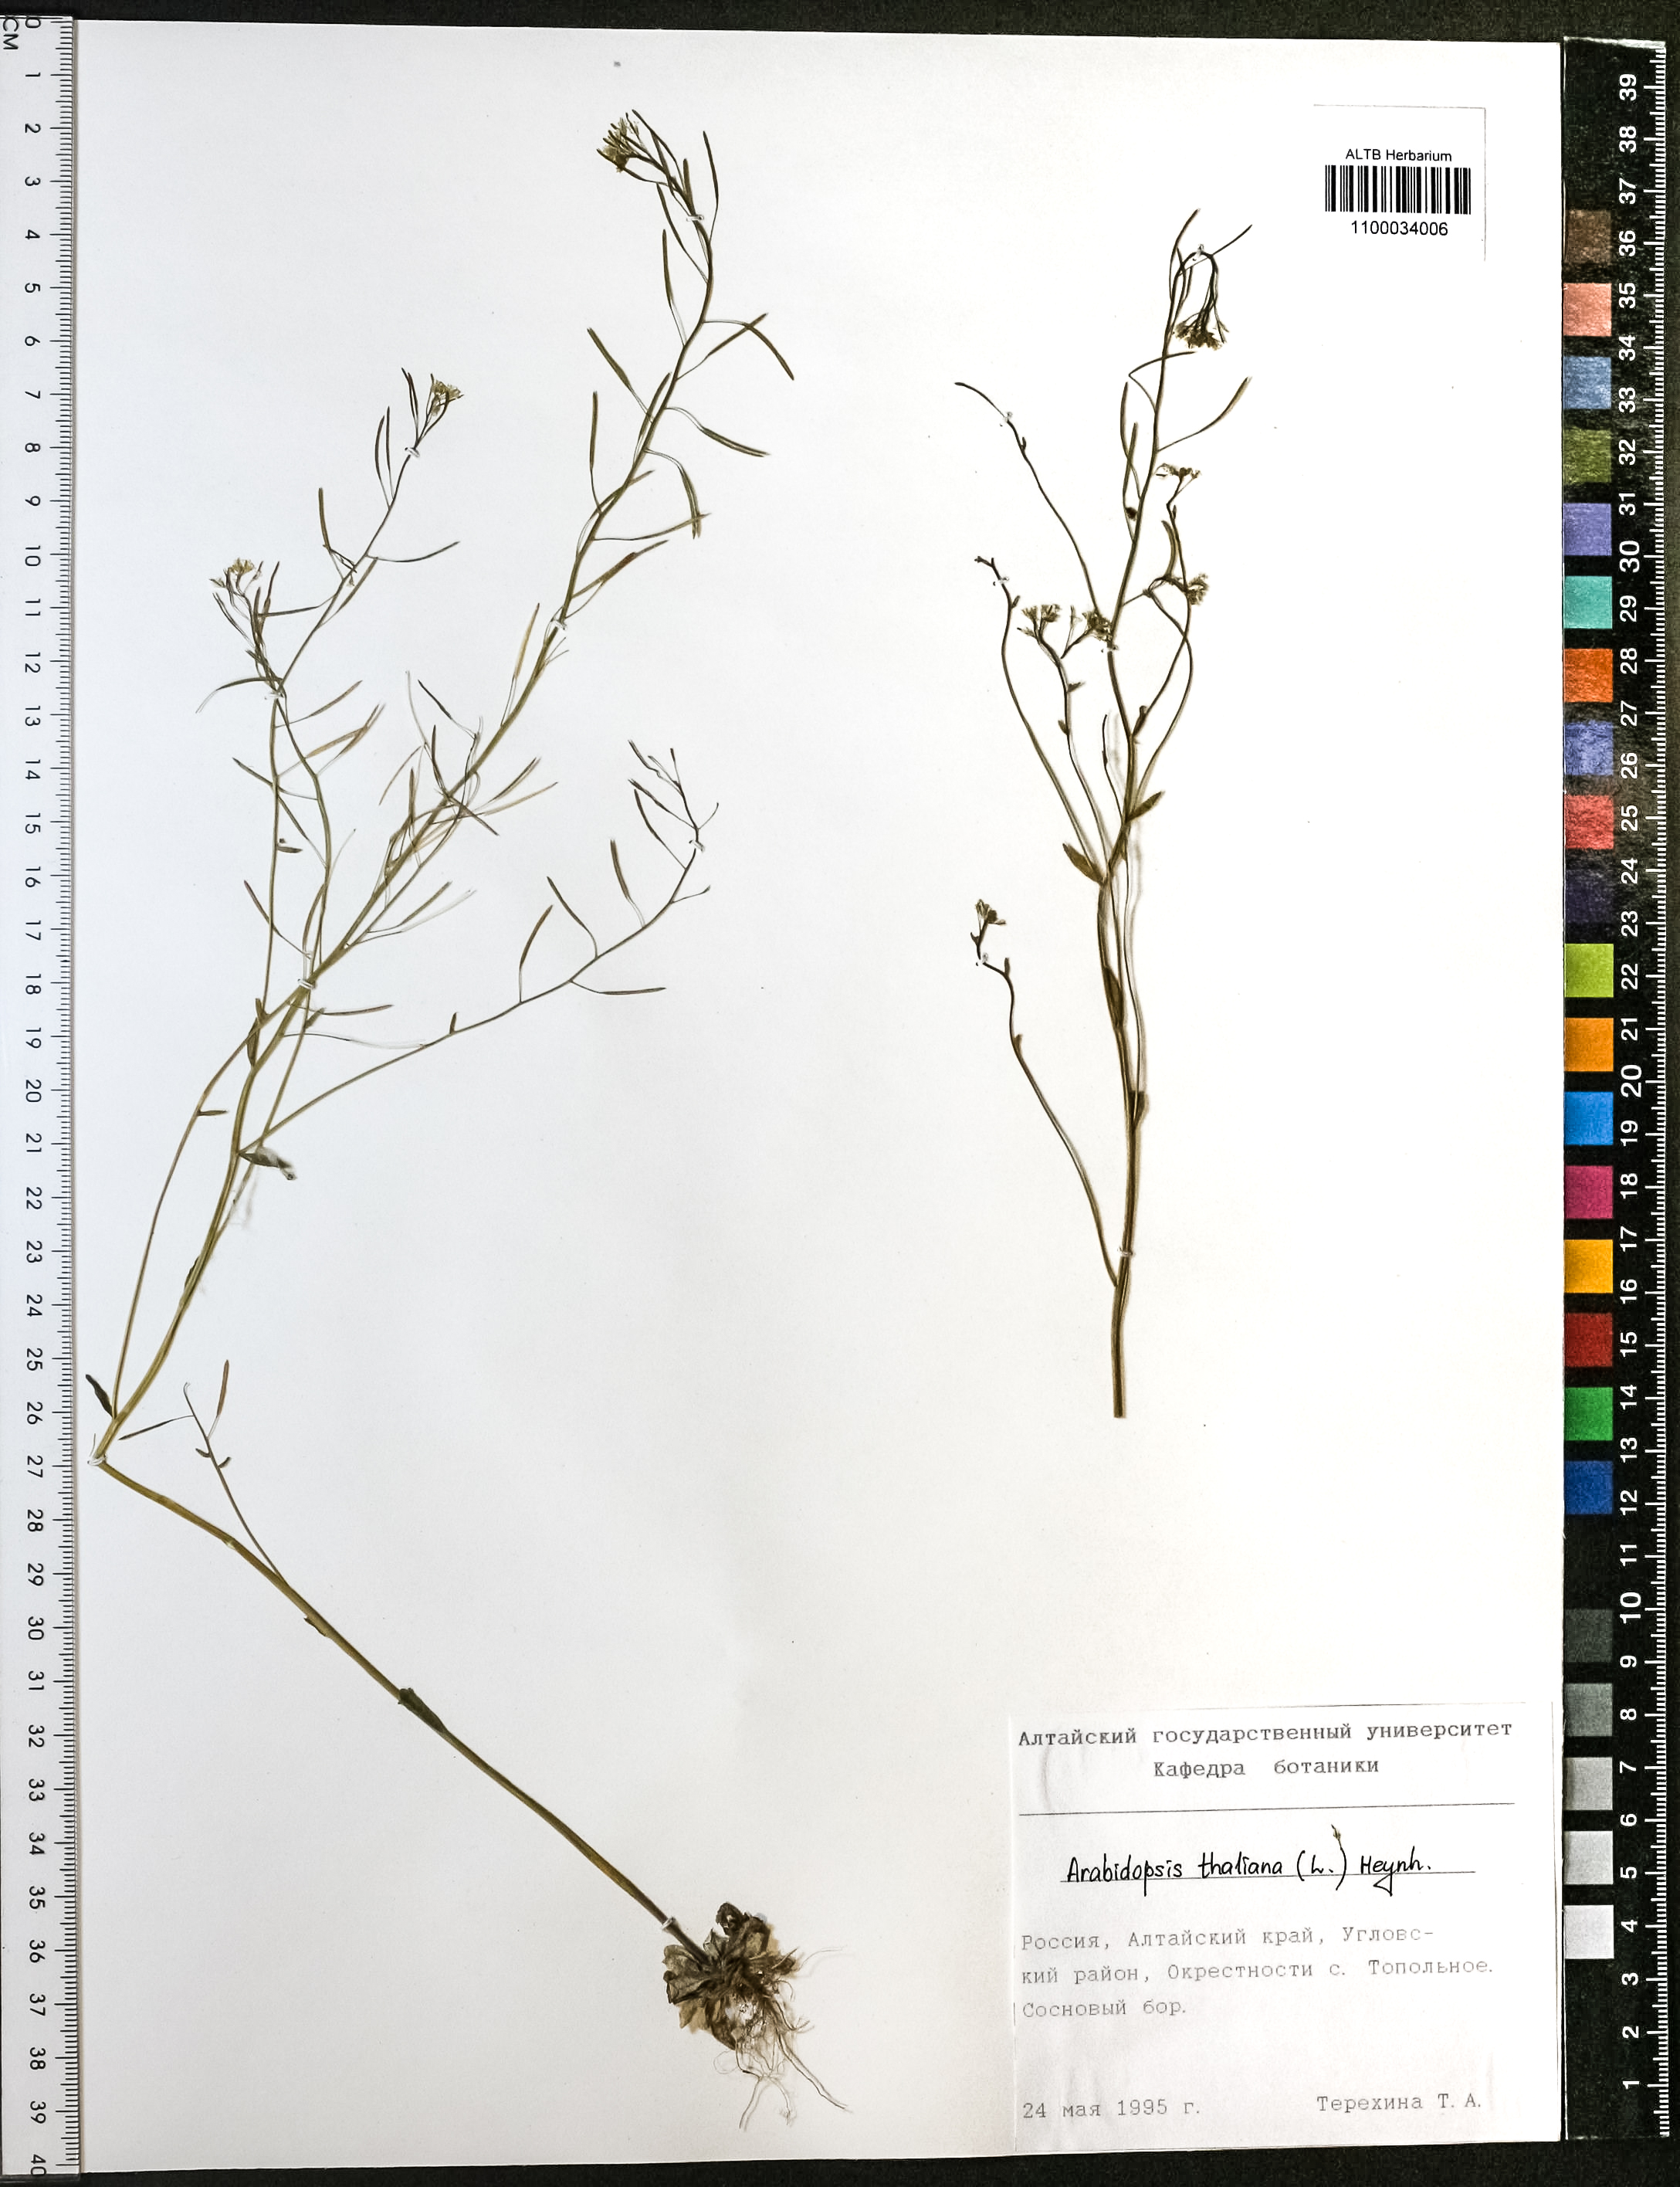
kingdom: Plantae
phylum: Tracheophyta
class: Magnoliopsida
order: Brassicales
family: Brassicaceae
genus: Arabidopsis
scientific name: Arabidopsis thaliana
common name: Thale cress
